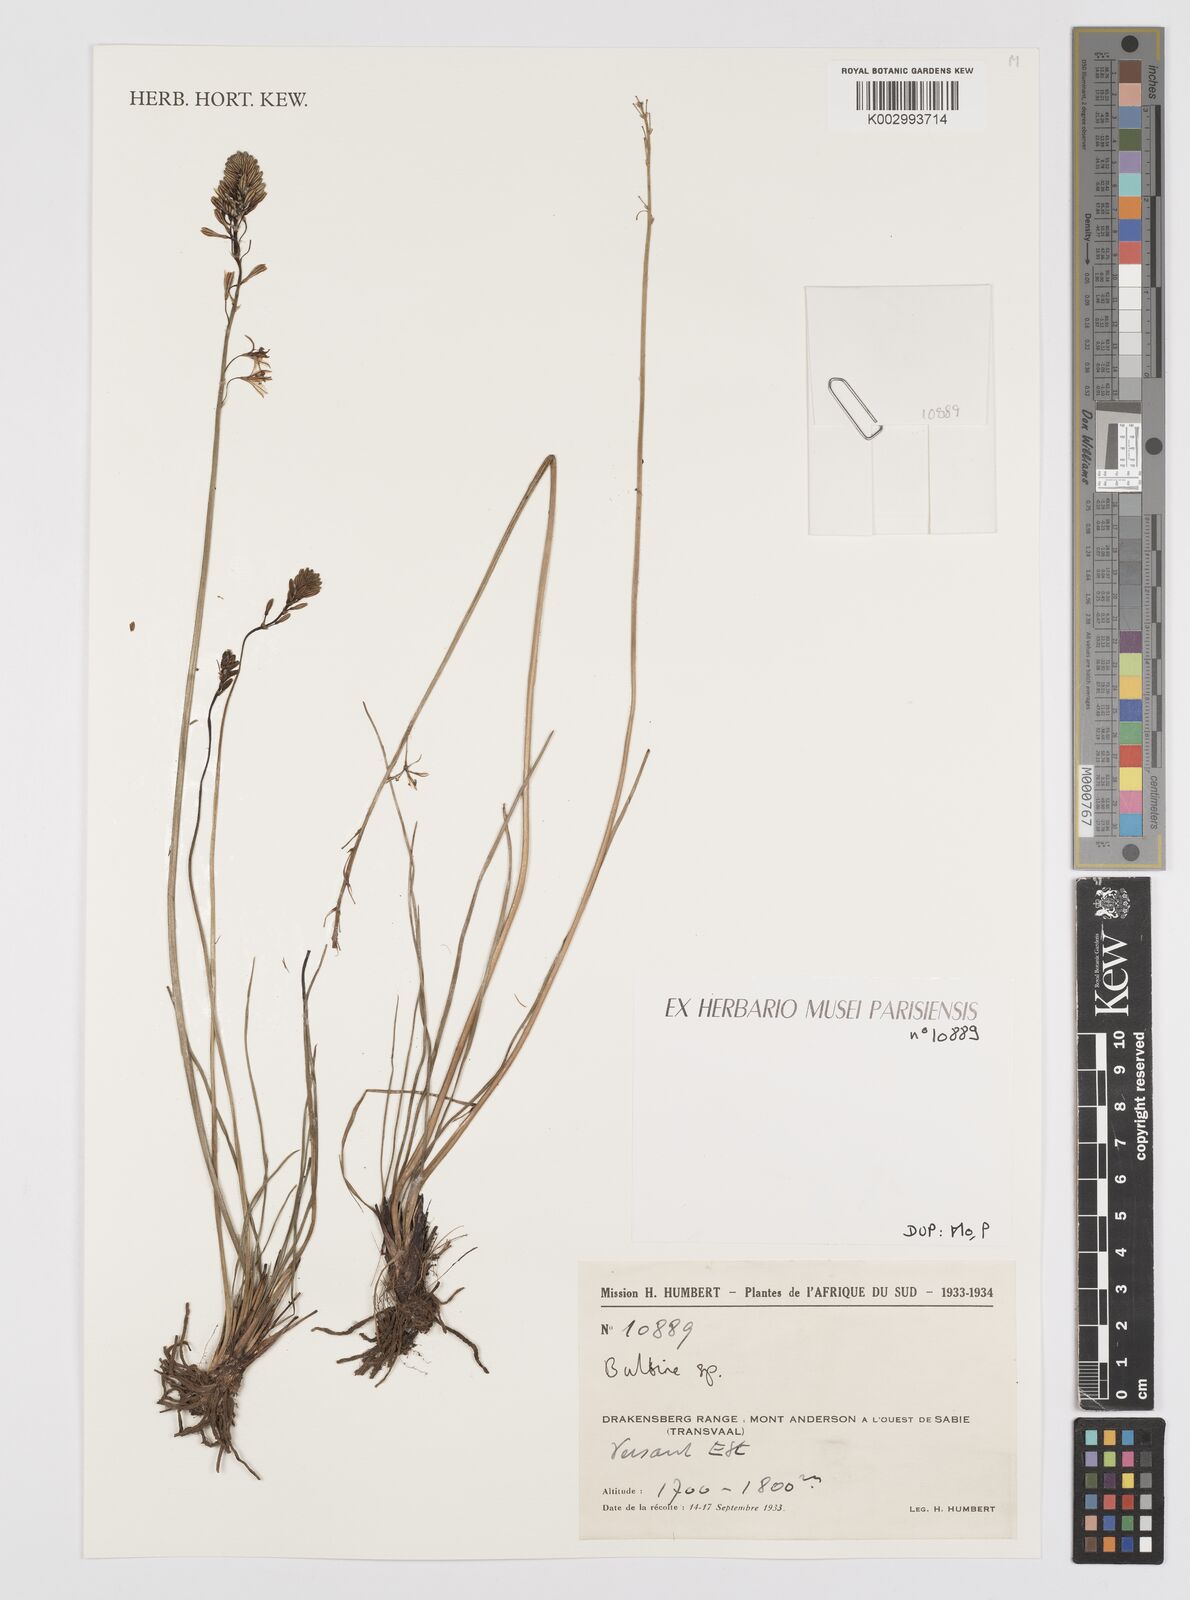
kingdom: Plantae
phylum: Tracheophyta
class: Liliopsida
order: Asparagales
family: Asphodelaceae
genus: Bulbine
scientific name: Bulbine
